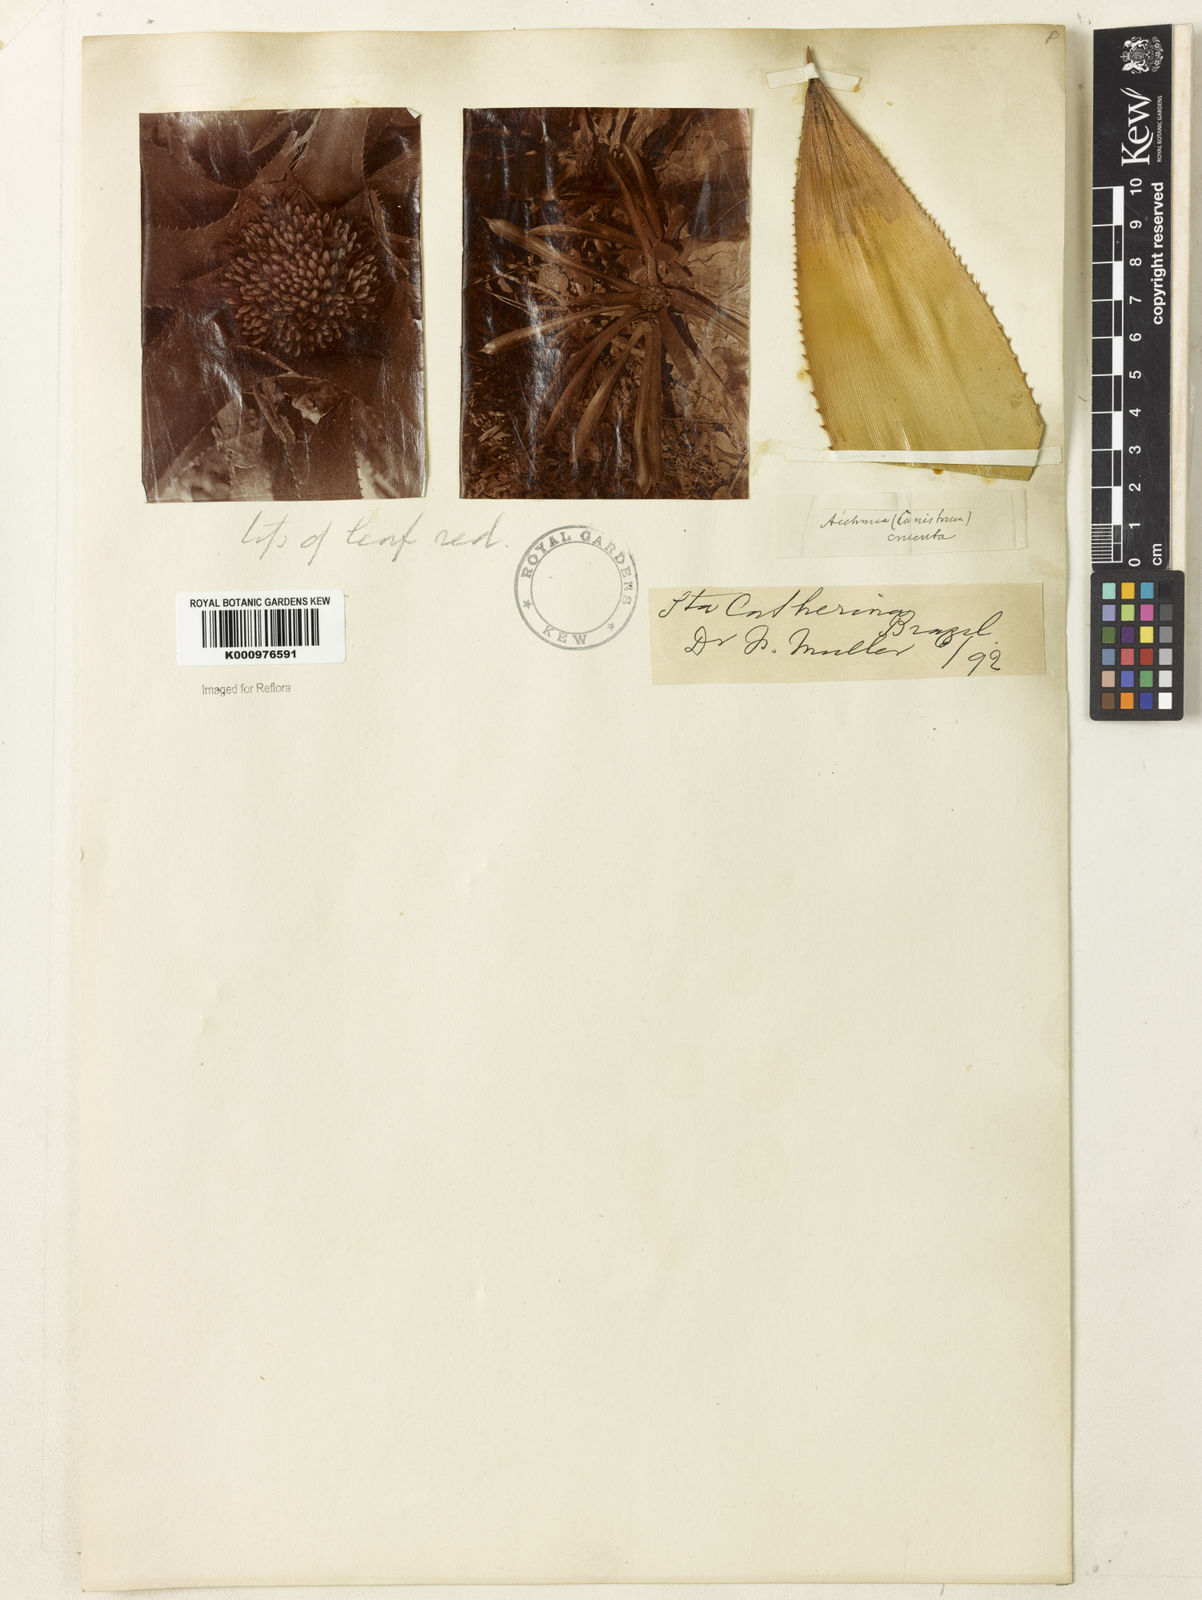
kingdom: Plantae
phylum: Tracheophyta
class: Liliopsida
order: Poales
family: Bromeliaceae
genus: Wittrockia
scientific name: Wittrockia superba
